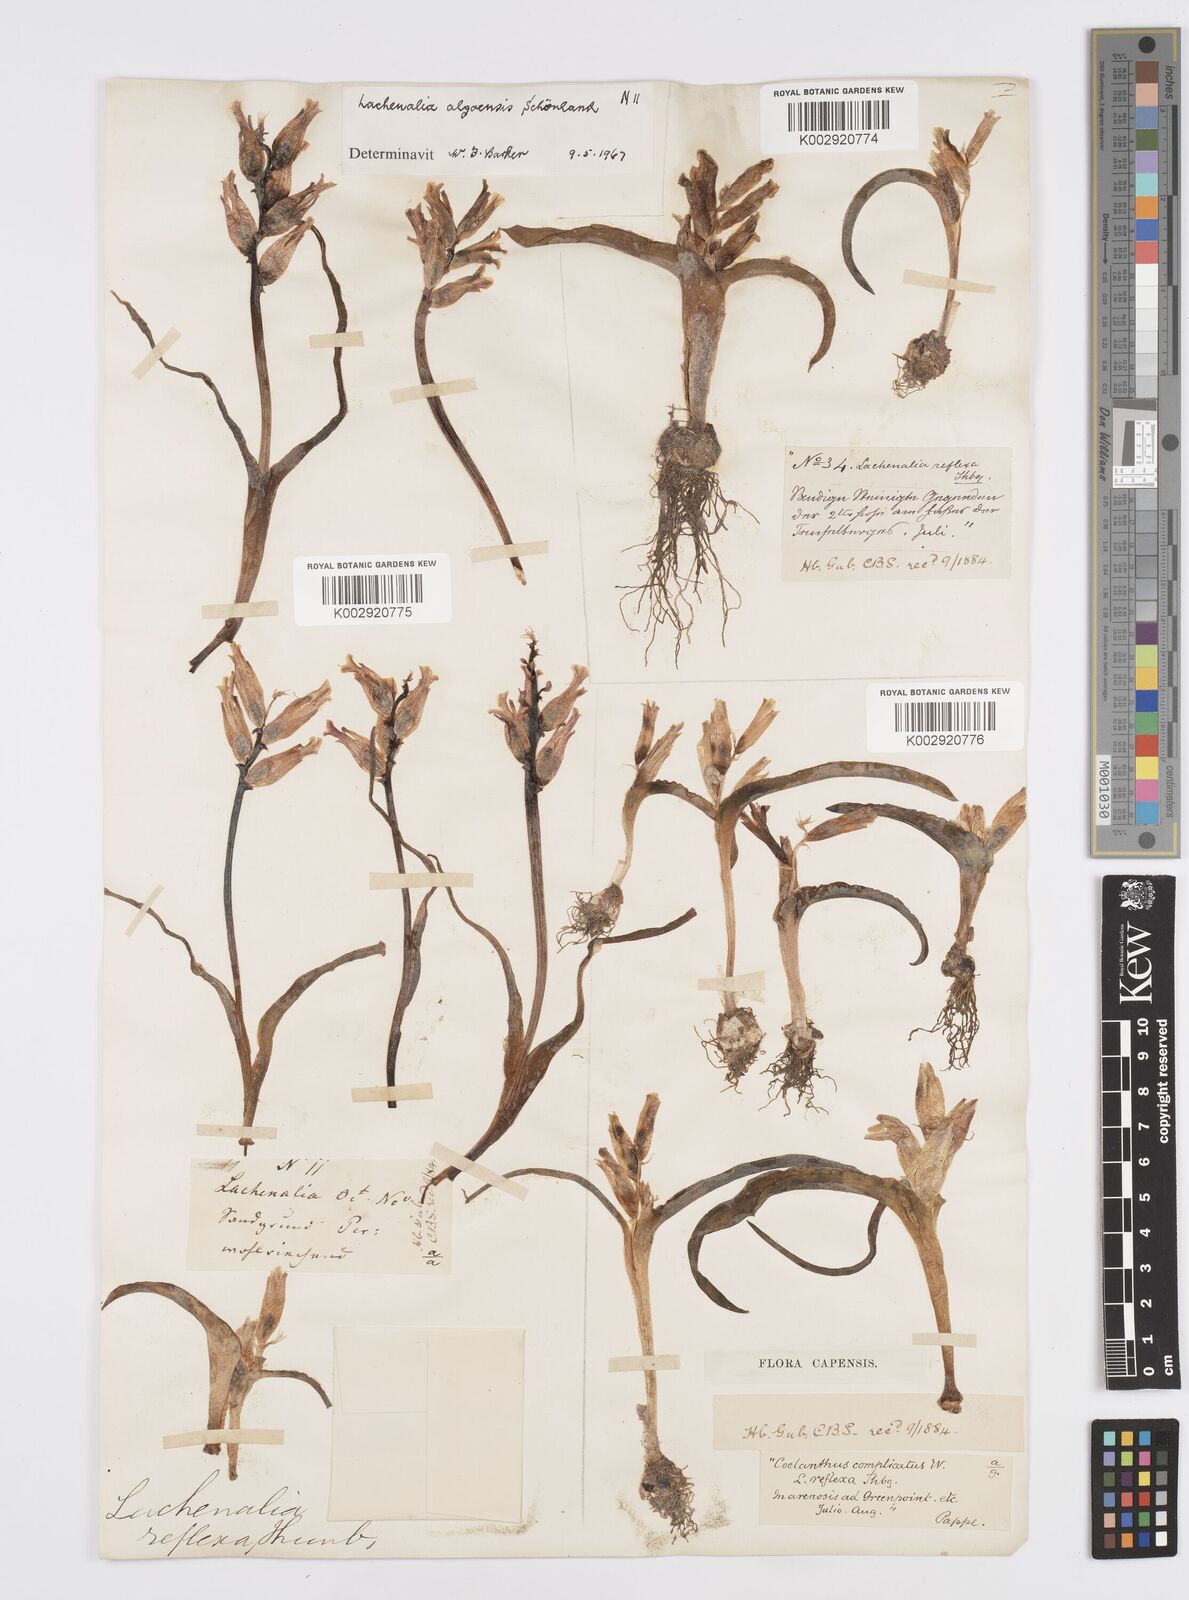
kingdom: Plantae
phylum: Tracheophyta
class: Liliopsida
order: Asparagales
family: Asparagaceae
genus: Lachenalia
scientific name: Lachenalia algoensis
